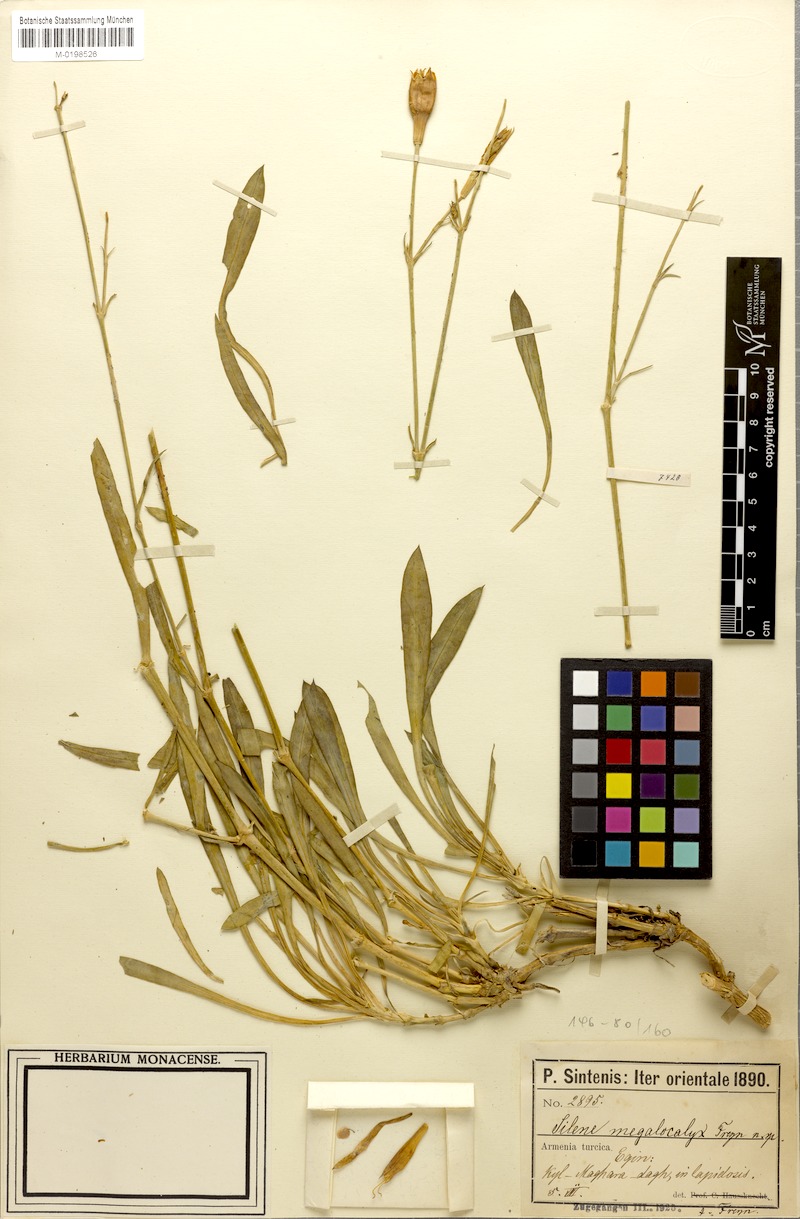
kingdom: Plantae
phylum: Tracheophyta
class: Magnoliopsida
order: Caryophyllales
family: Caryophyllaceae
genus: Silene
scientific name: Silene bupleuroides
